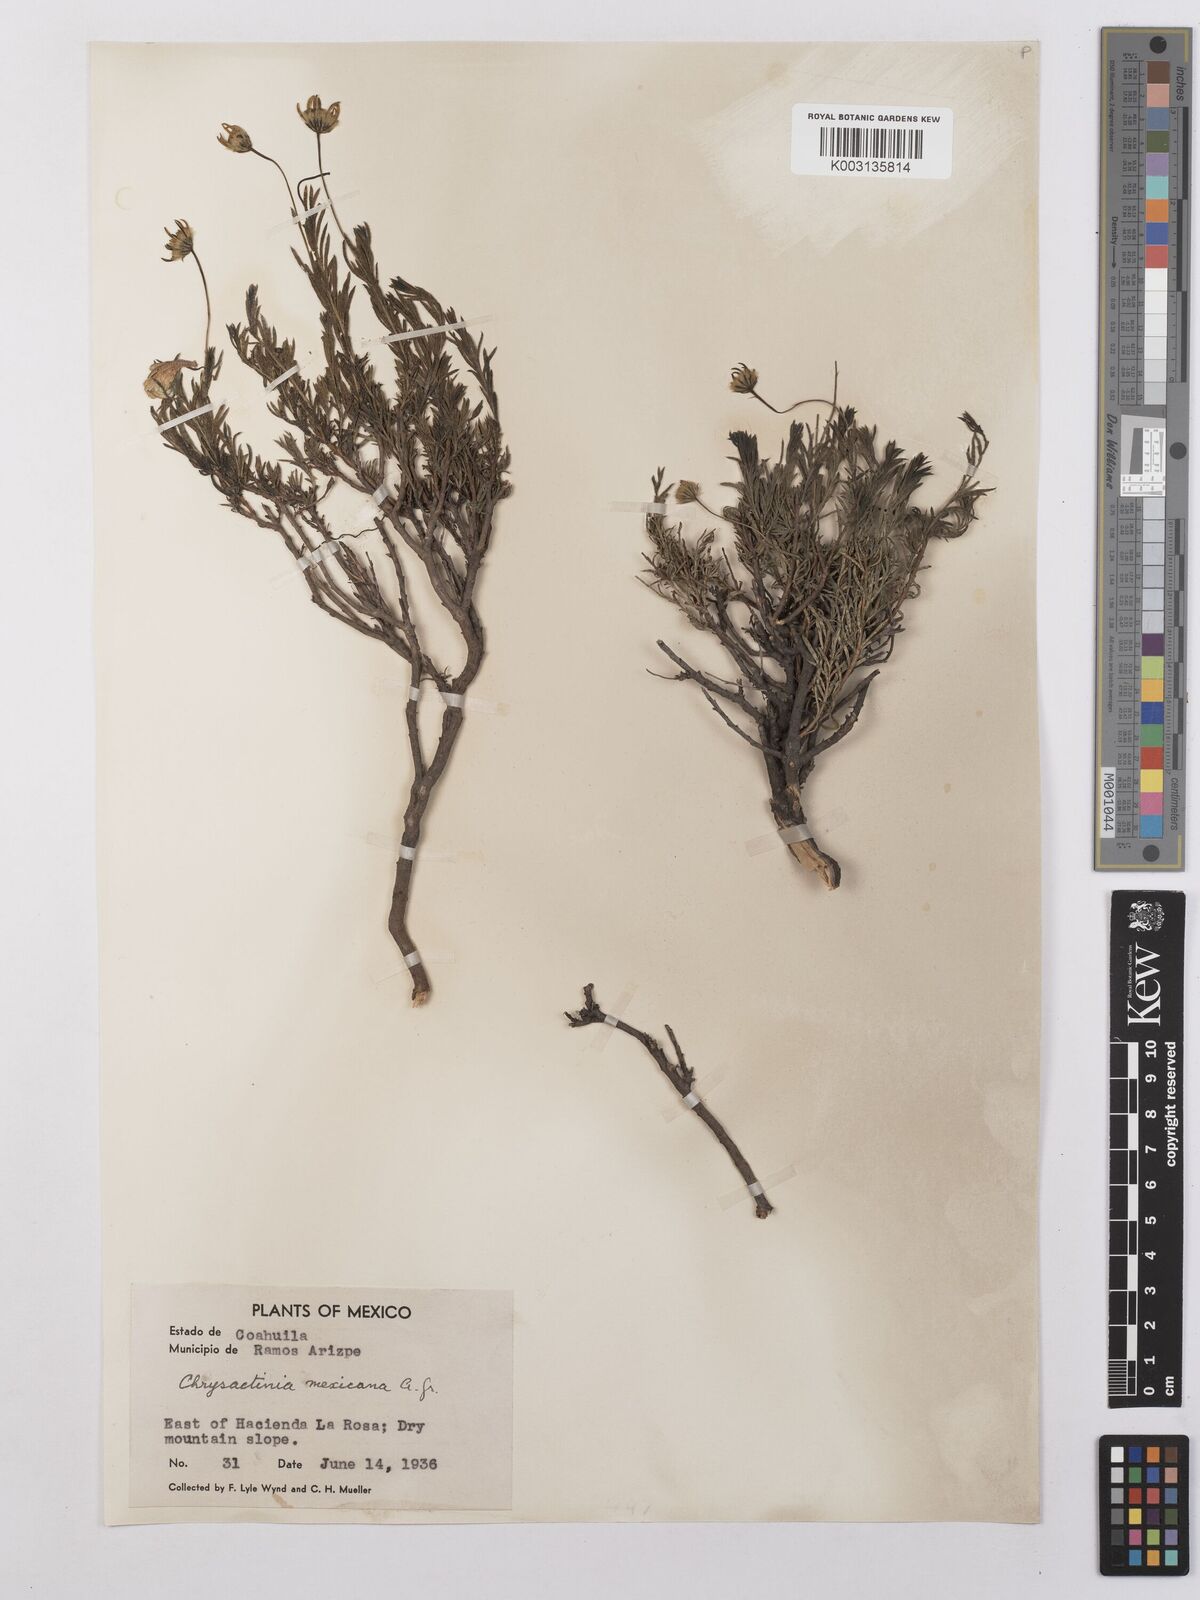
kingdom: Plantae
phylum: Tracheophyta
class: Magnoliopsida
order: Asterales
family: Asteraceae
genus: Chrysactinia
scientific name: Chrysactinia mexicana
